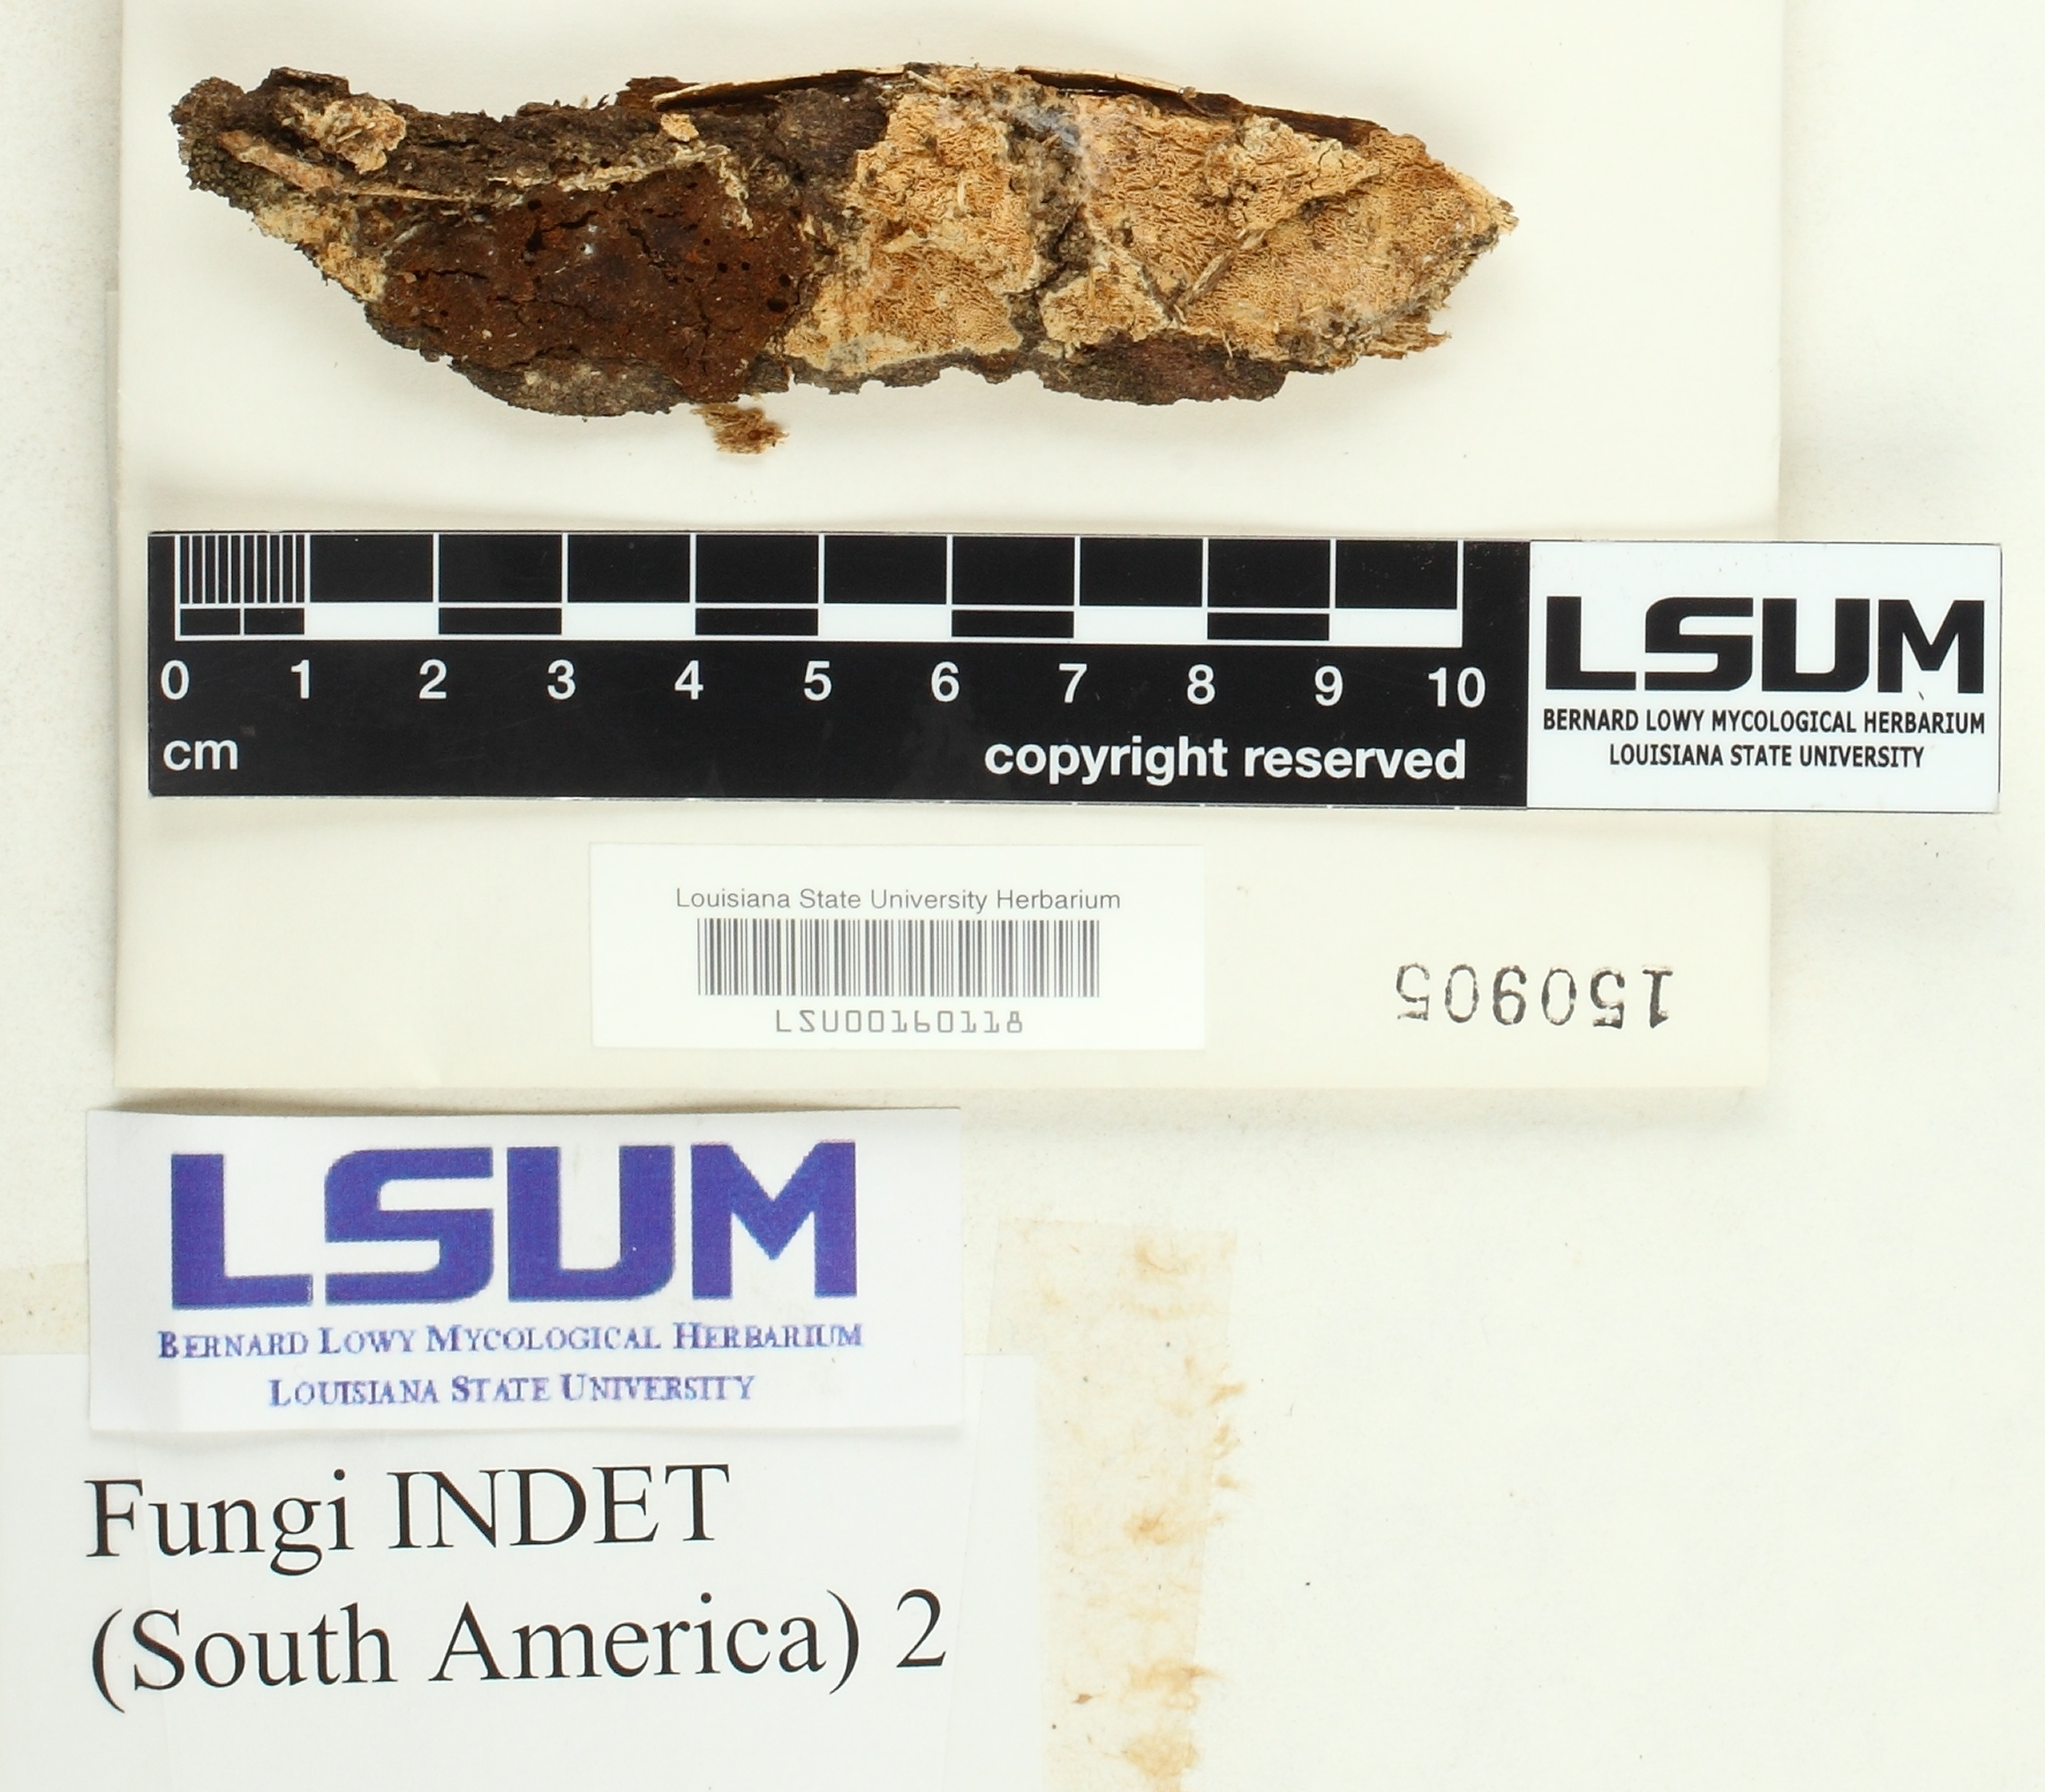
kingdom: Fungi
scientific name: Fungi
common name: Fungi
